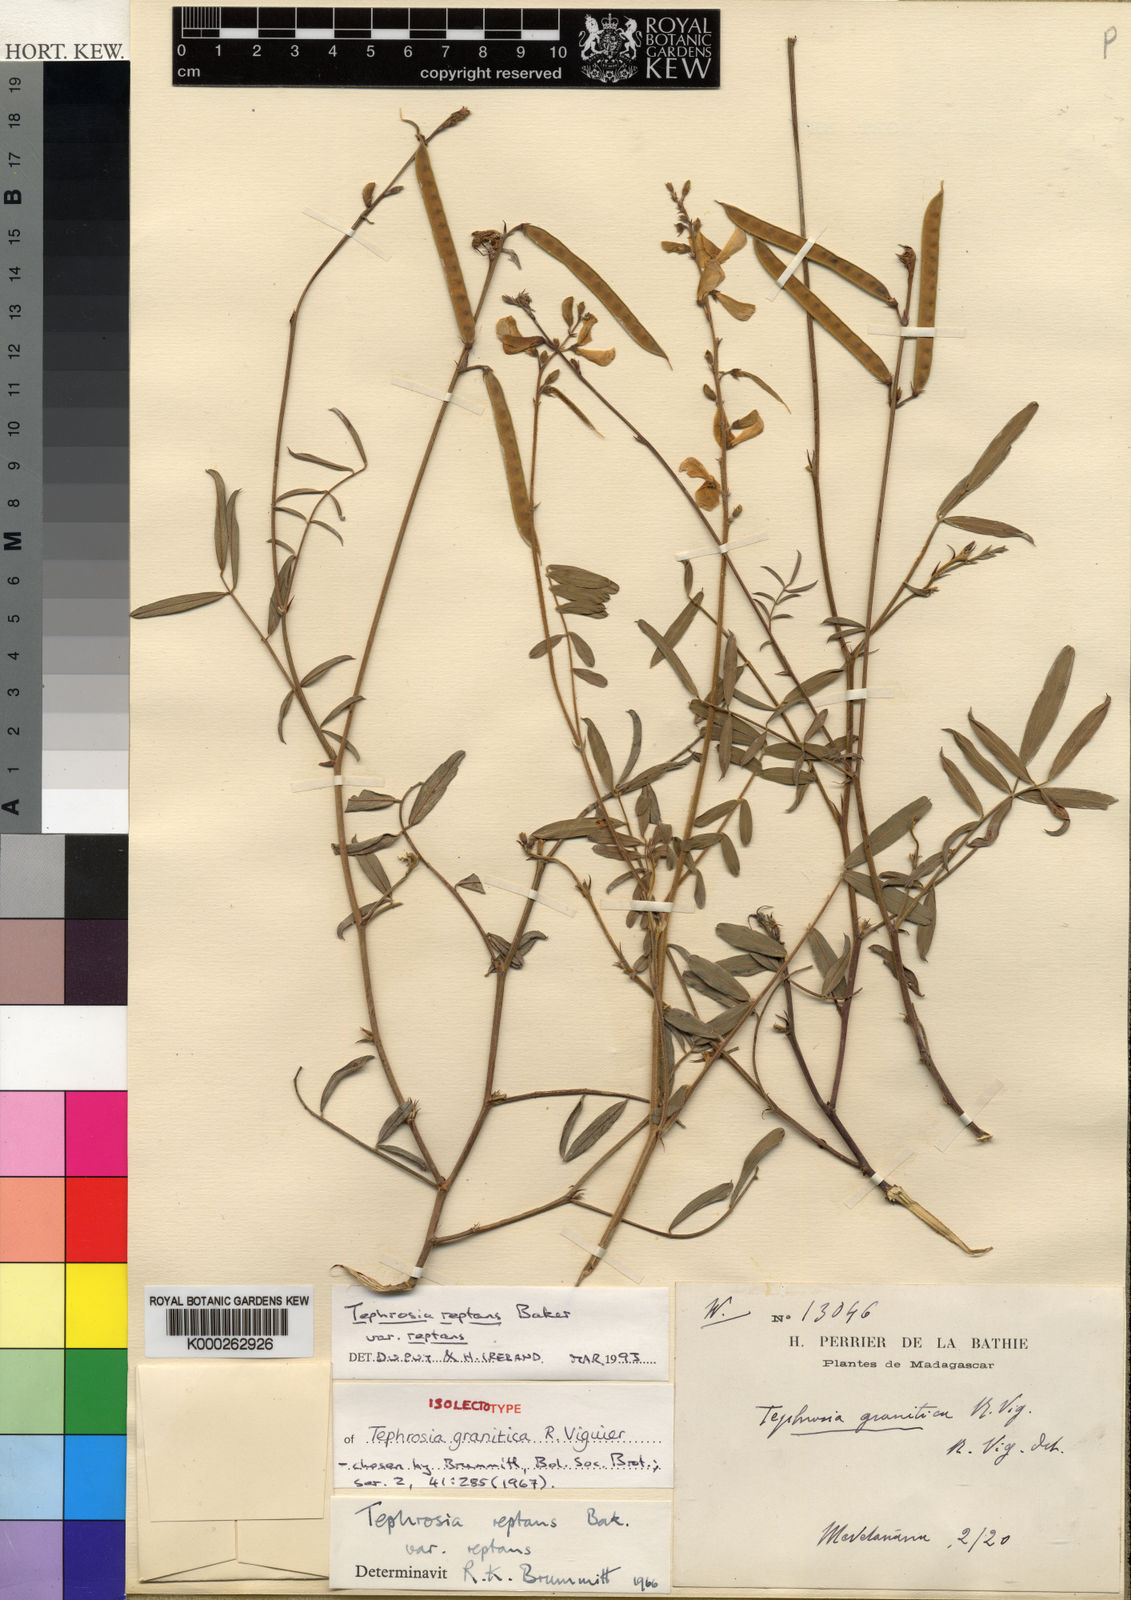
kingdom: Plantae
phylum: Tracheophyta
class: Magnoliopsida
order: Fabales
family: Fabaceae
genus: Tephrosia
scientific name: Tephrosia reptans
